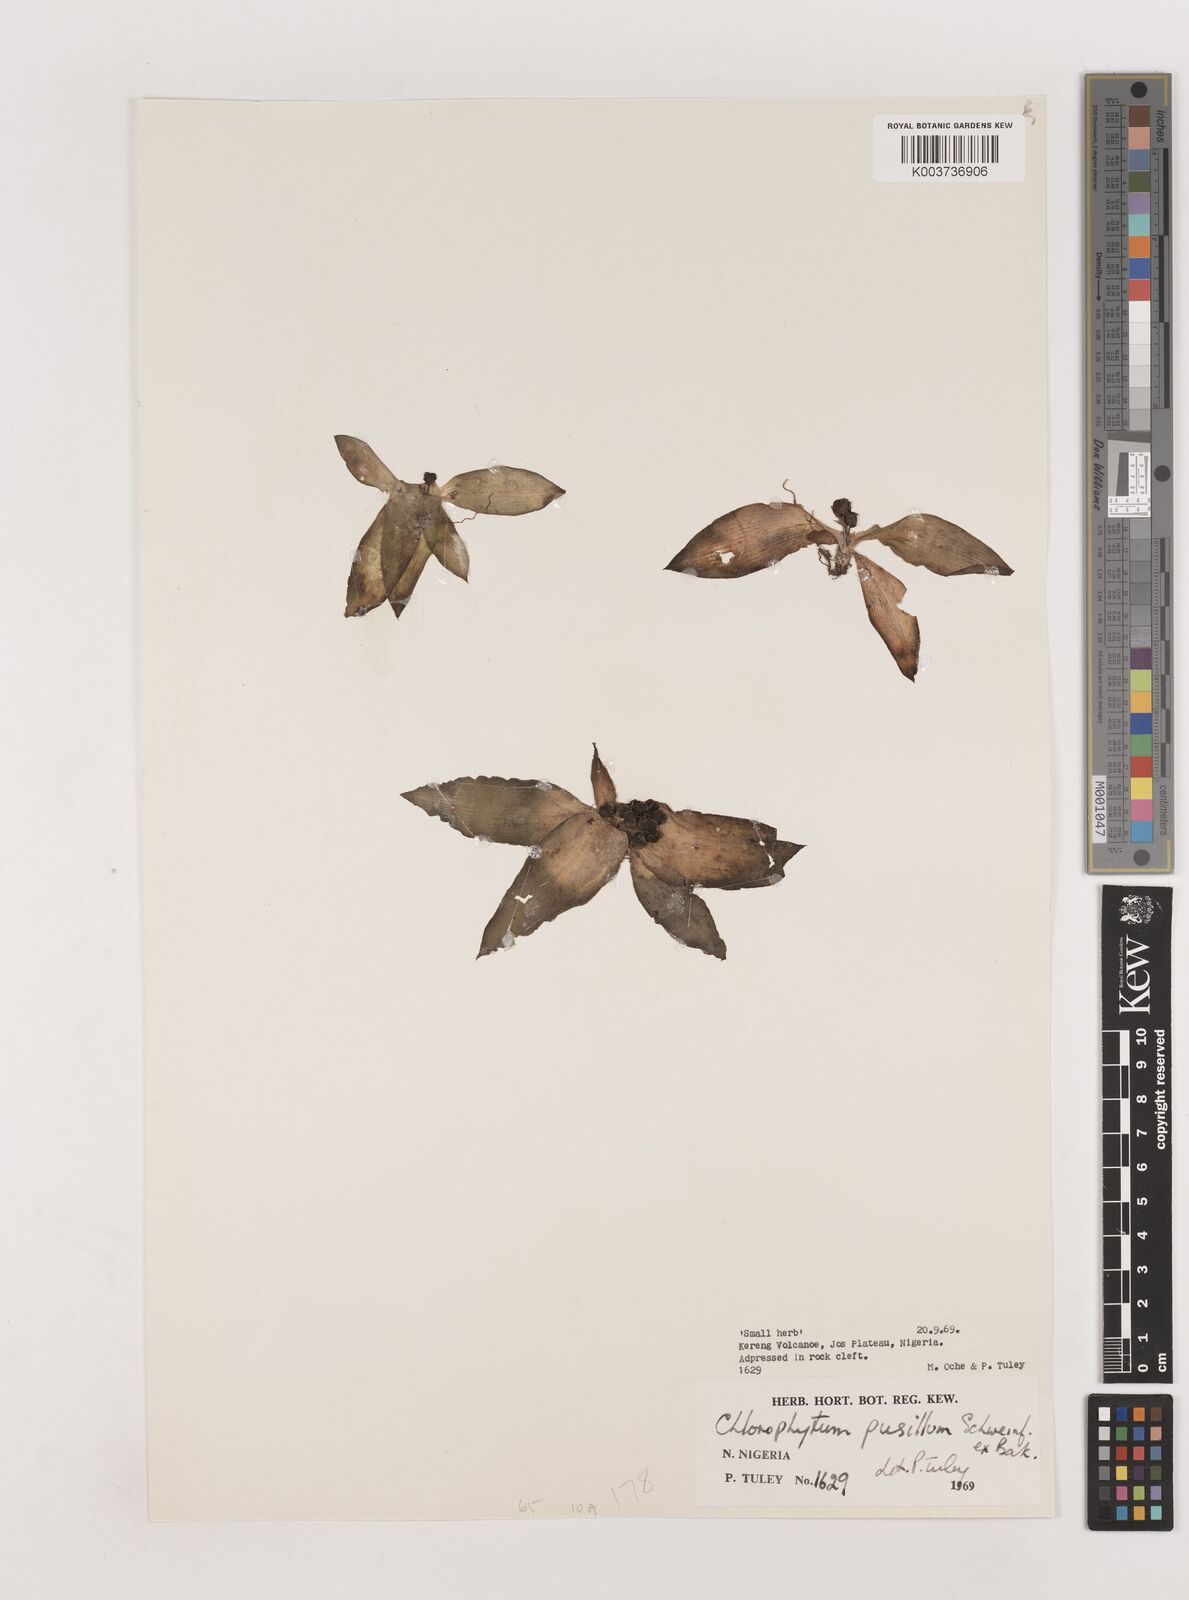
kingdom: Plantae
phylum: Tracheophyta
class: Liliopsida
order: Asparagales
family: Asparagaceae
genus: Chlorophytum
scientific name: Chlorophytum pusillum
